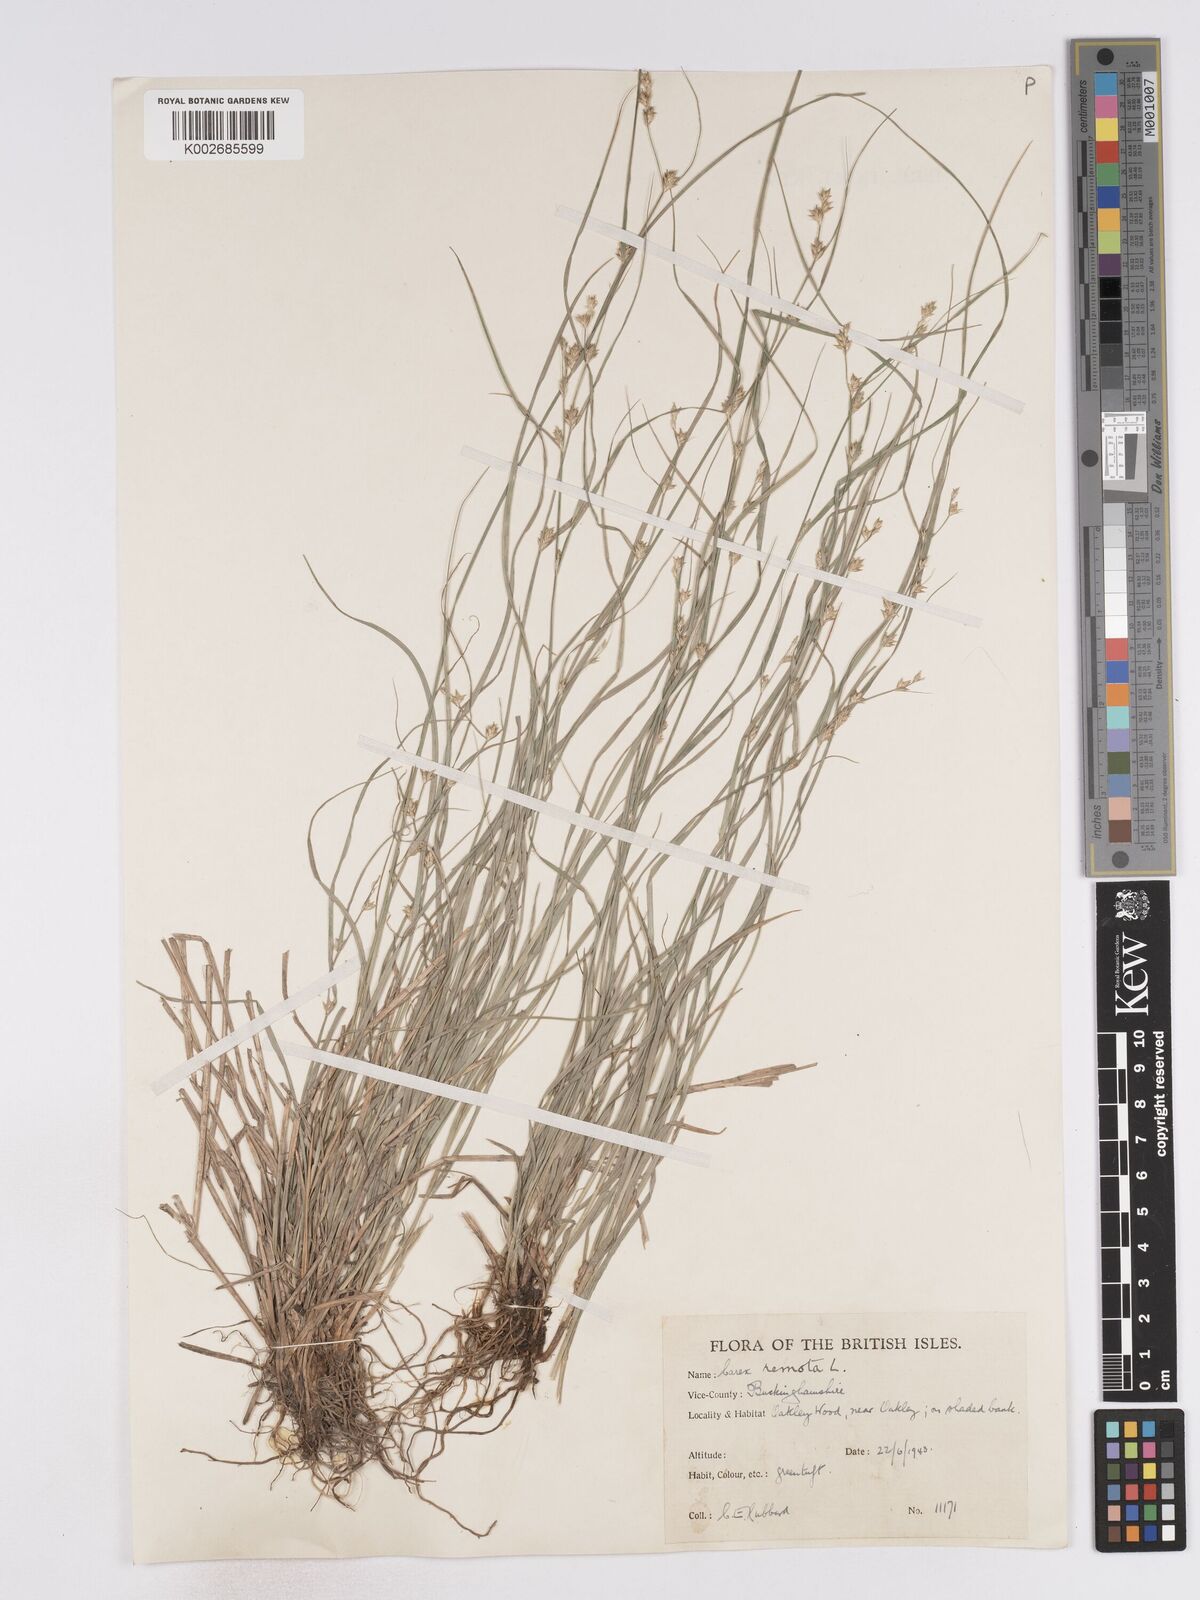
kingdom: Plantae
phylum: Tracheophyta
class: Liliopsida
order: Poales
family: Cyperaceae
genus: Carex
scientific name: Carex remota
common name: Remote sedge
